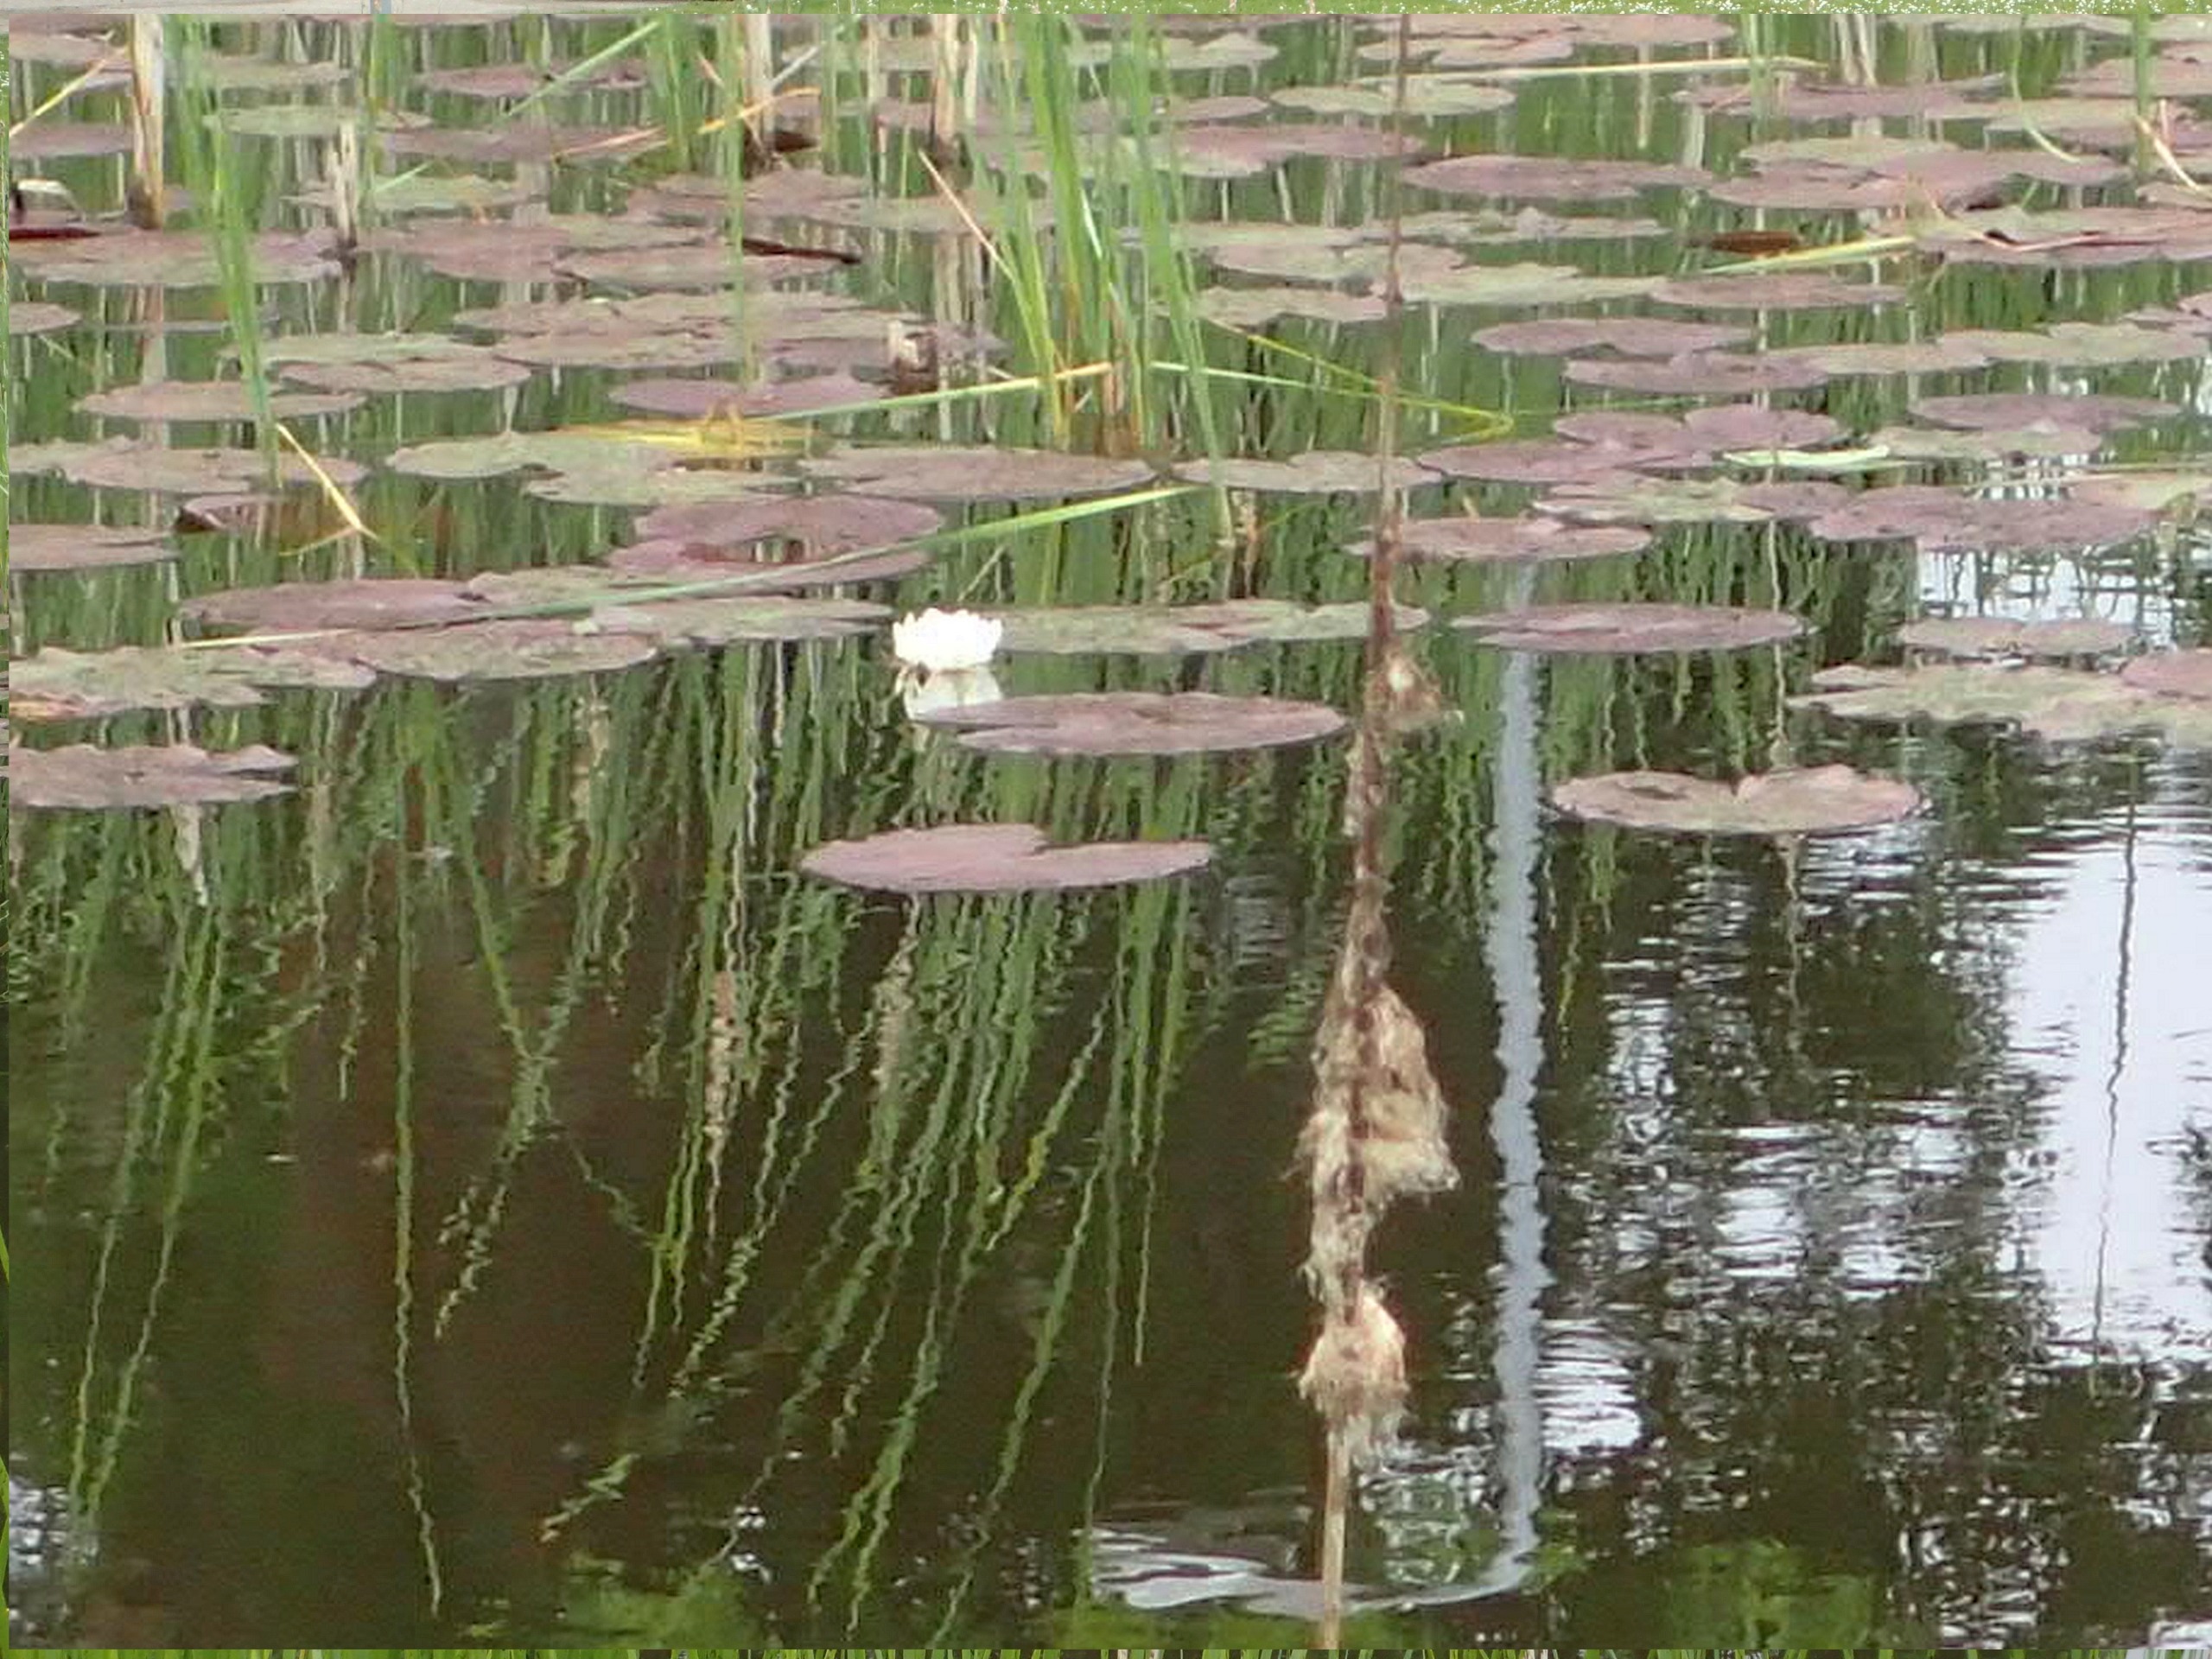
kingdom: Plantae
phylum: Tracheophyta
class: Magnoliopsida
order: Nymphaeales
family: Nymphaeaceae
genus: Nymphaea
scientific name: Nymphaea alba
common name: Hvid åkande
